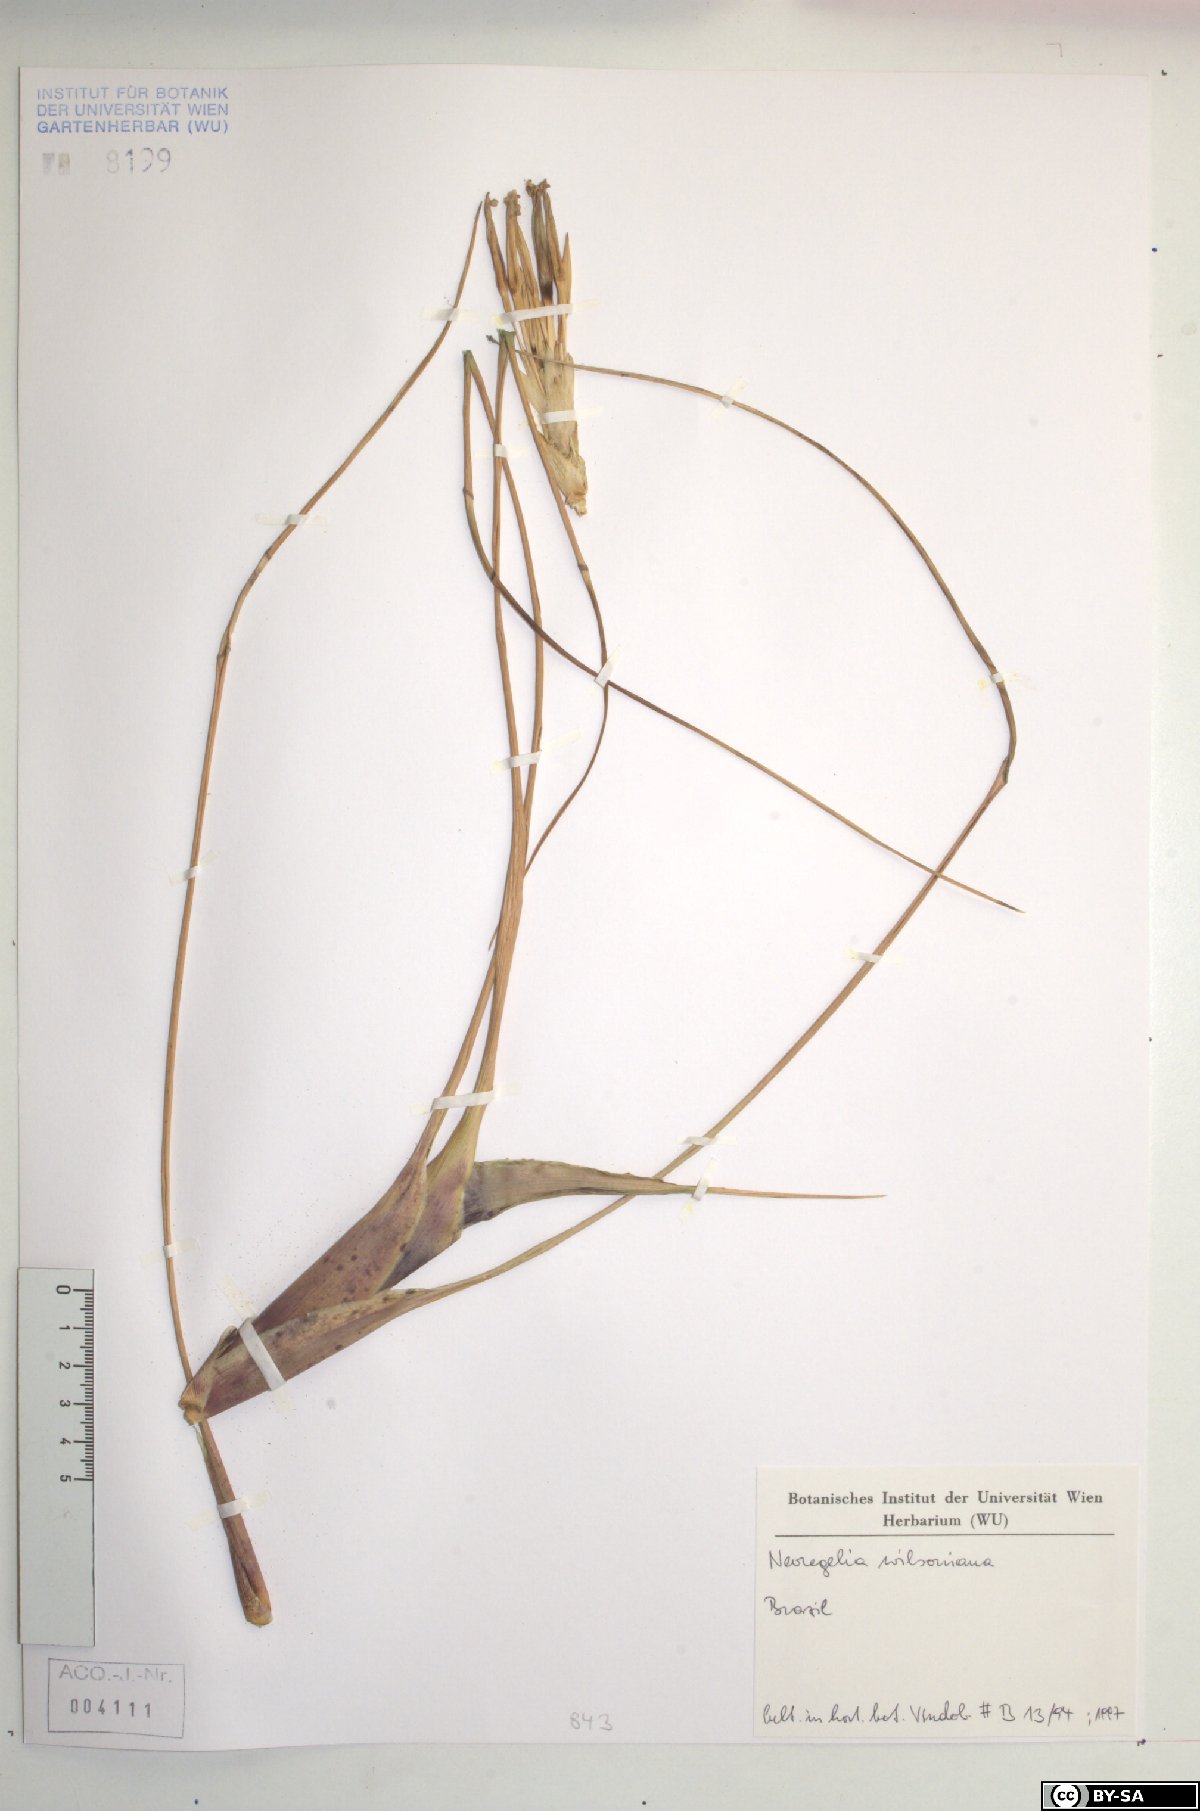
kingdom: Plantae
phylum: Tracheophyta
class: Liliopsida
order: Poales
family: Bromeliaceae
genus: Neoregelia
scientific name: Neoregelia wilsoniana
